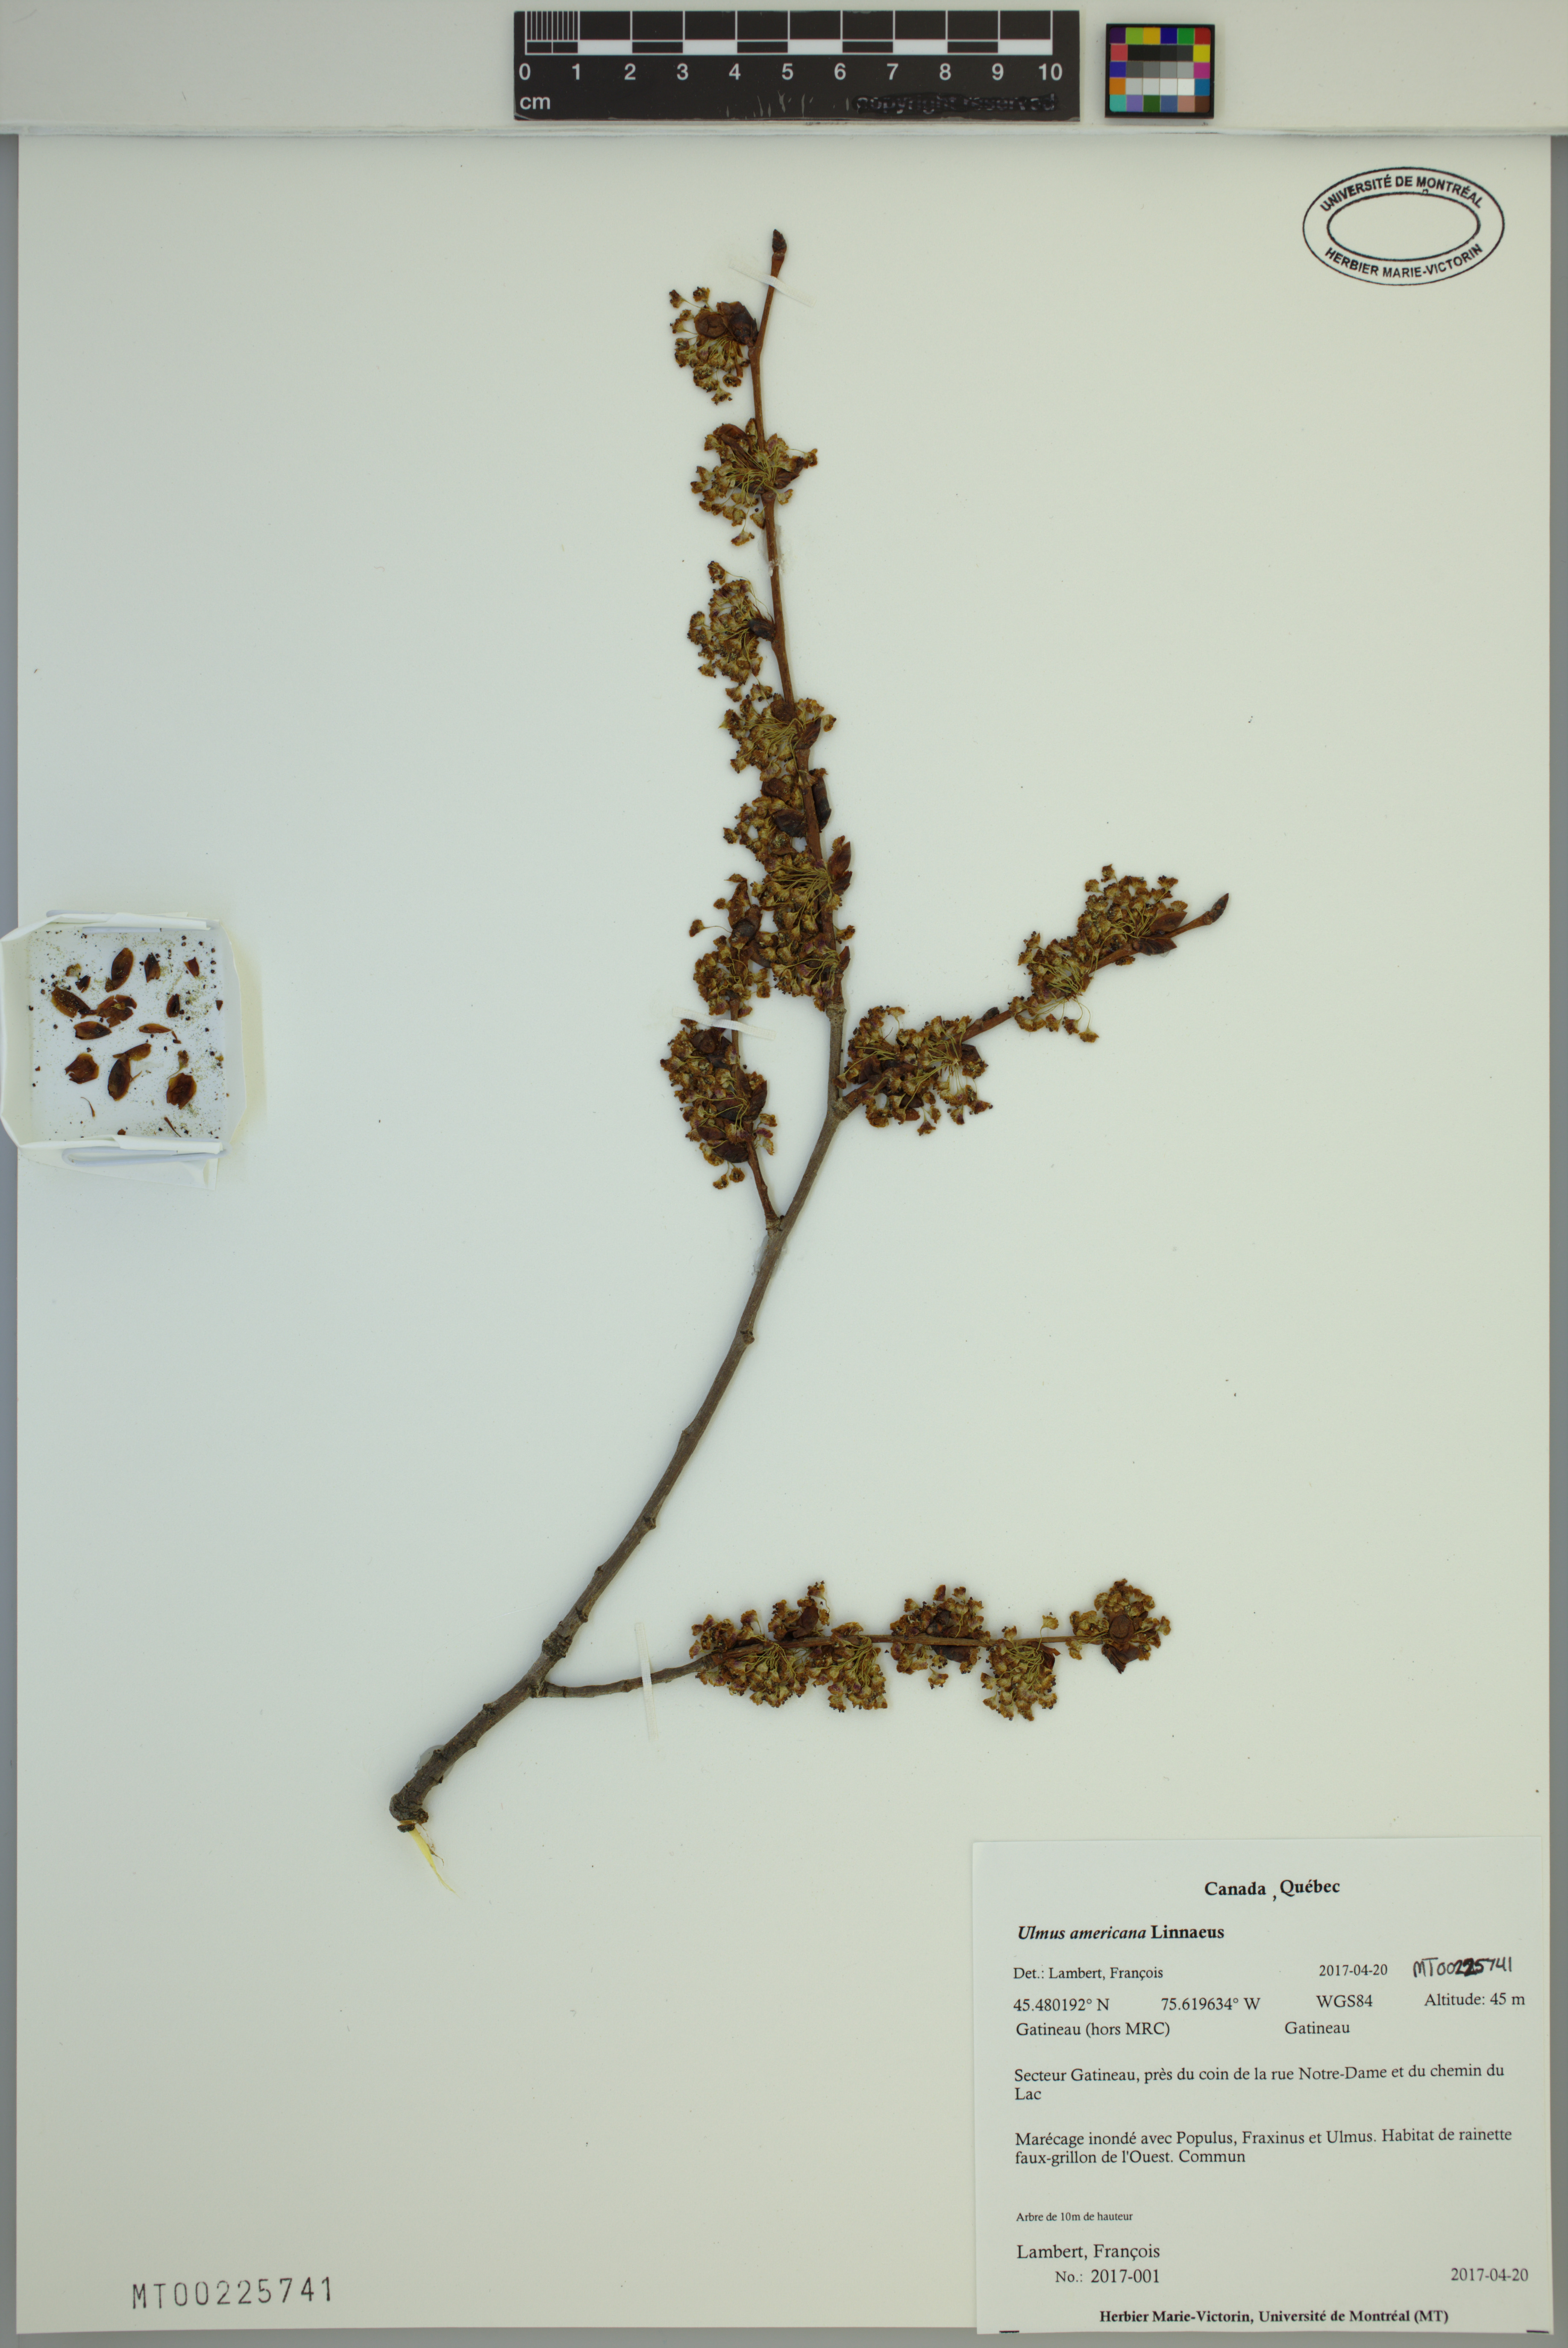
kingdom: Plantae
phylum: Tracheophyta
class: Magnoliopsida
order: Rosales
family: Ulmaceae
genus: Ulmus
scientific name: Ulmus americana
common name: American elm
